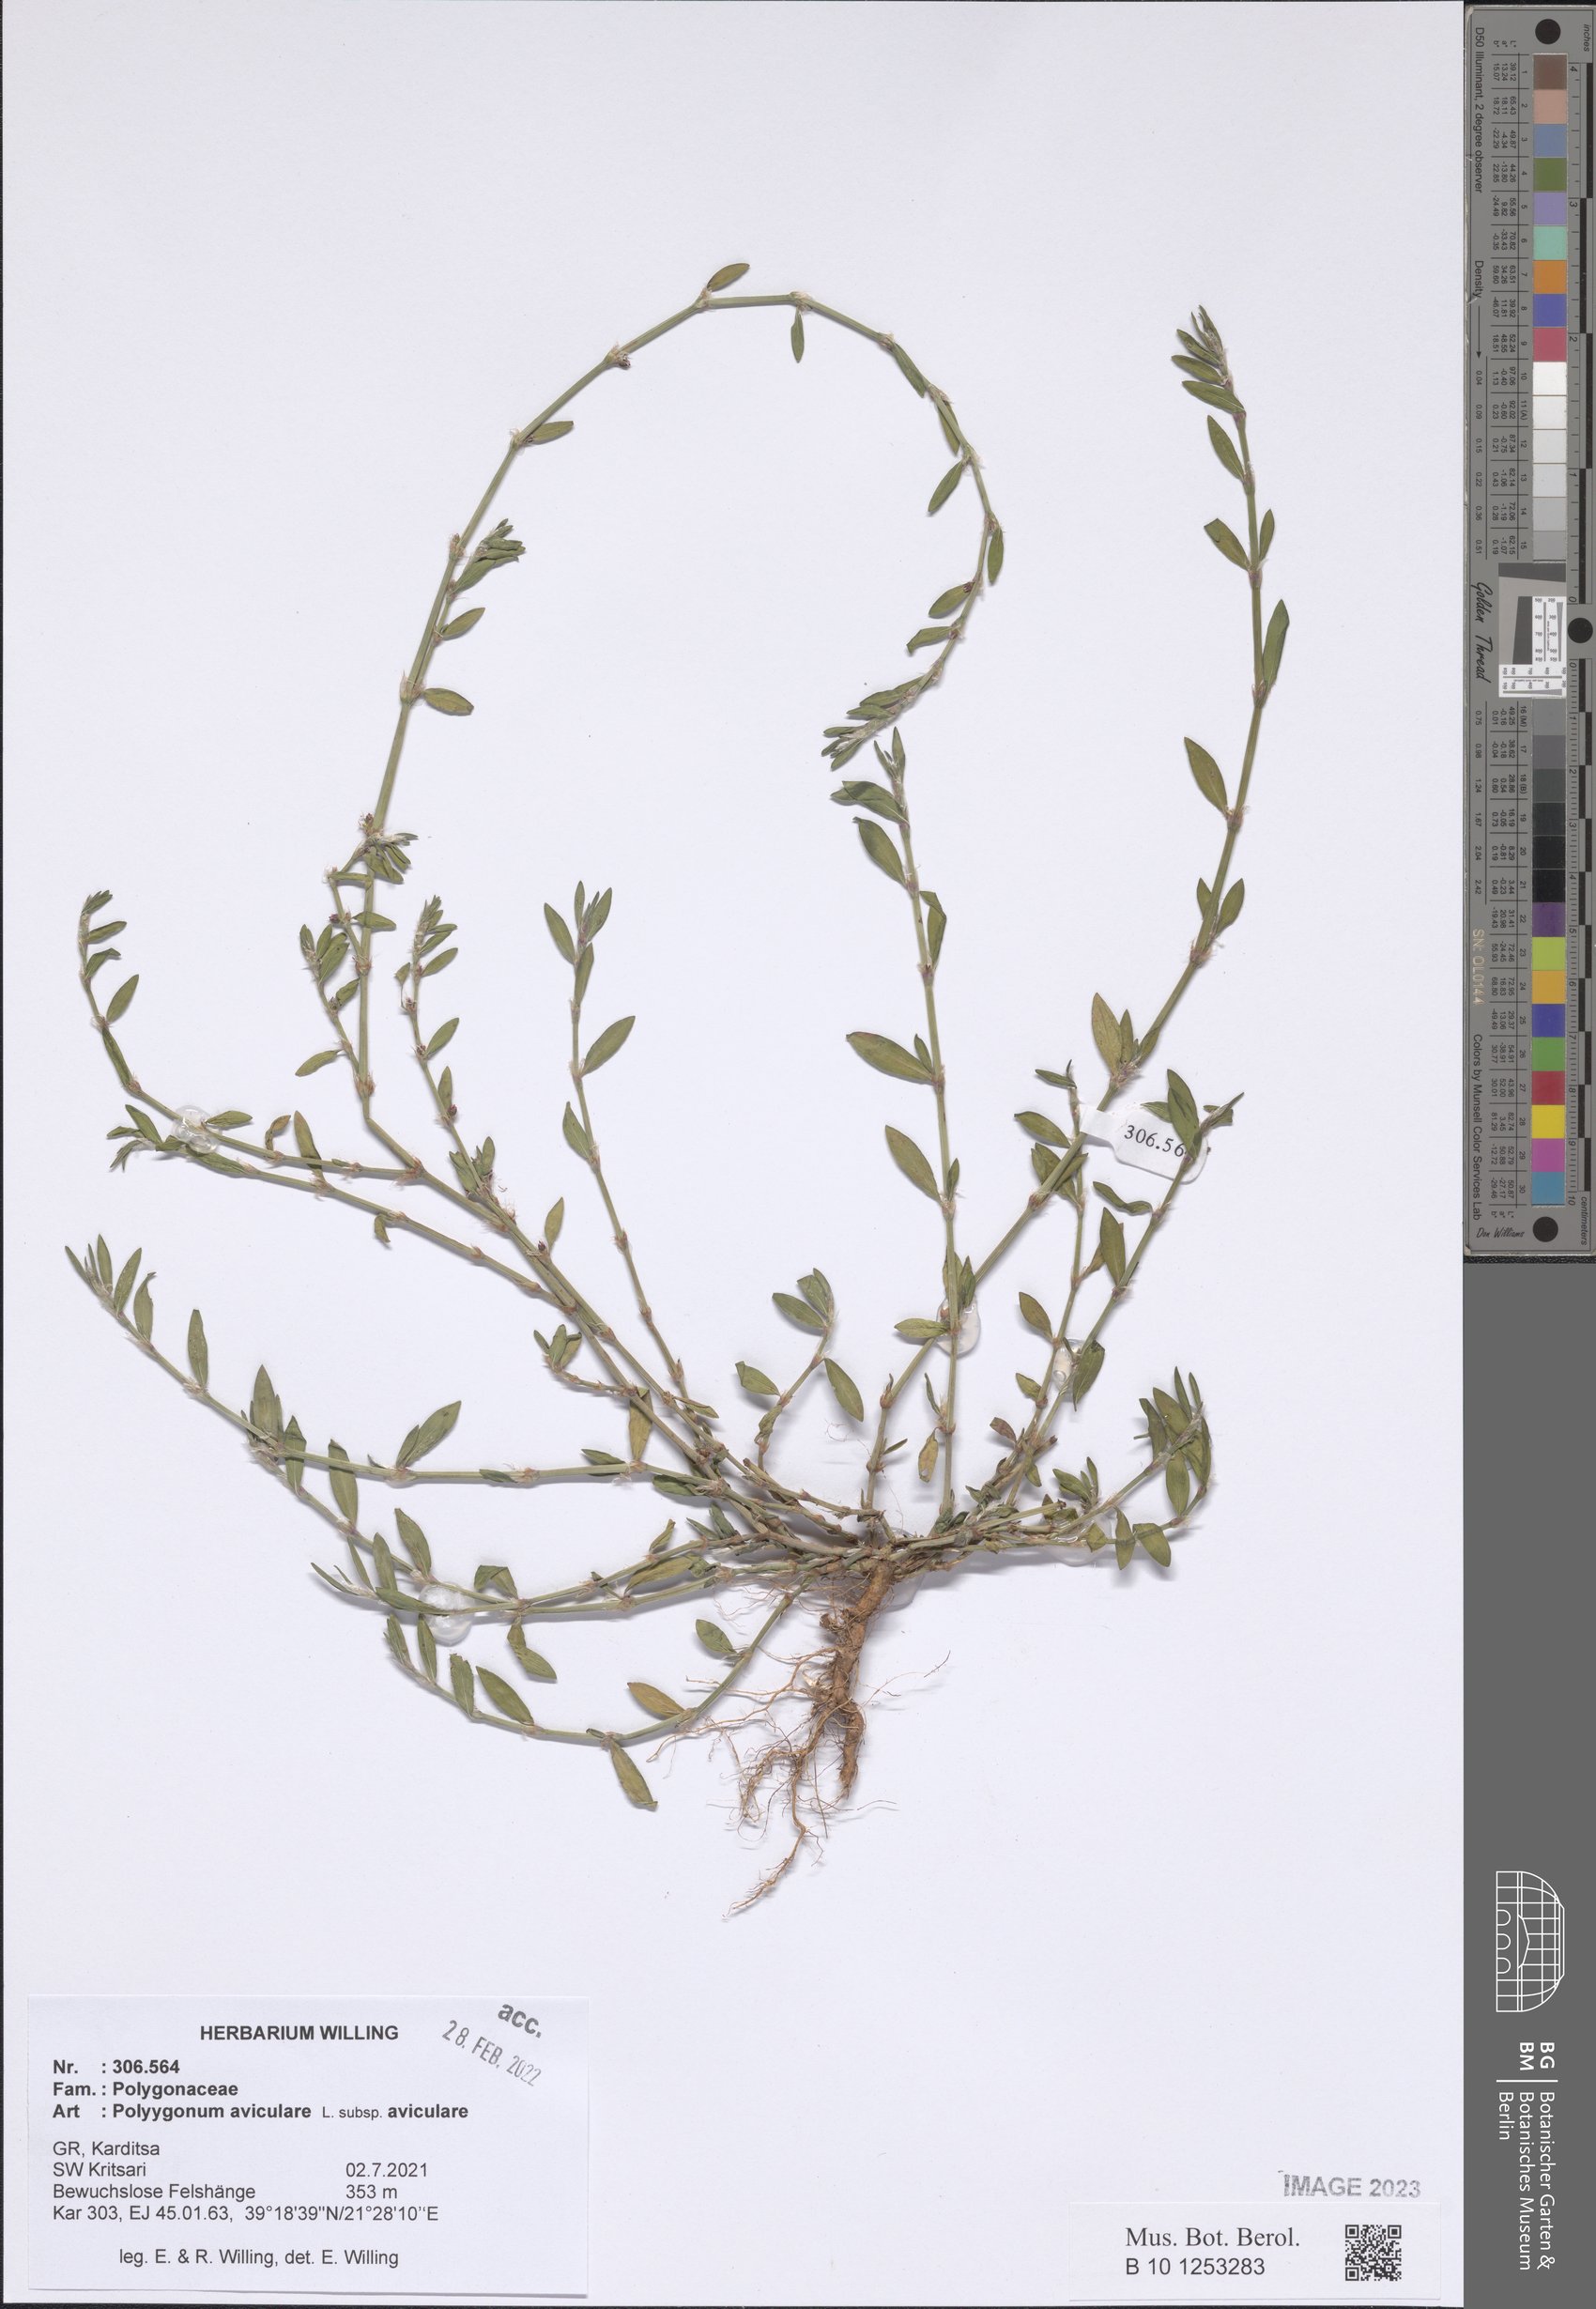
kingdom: Plantae
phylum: Tracheophyta
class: Magnoliopsida
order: Caryophyllales
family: Polygonaceae
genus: Polygonum
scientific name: Polygonum aviculare
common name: Prostrate knotweed
